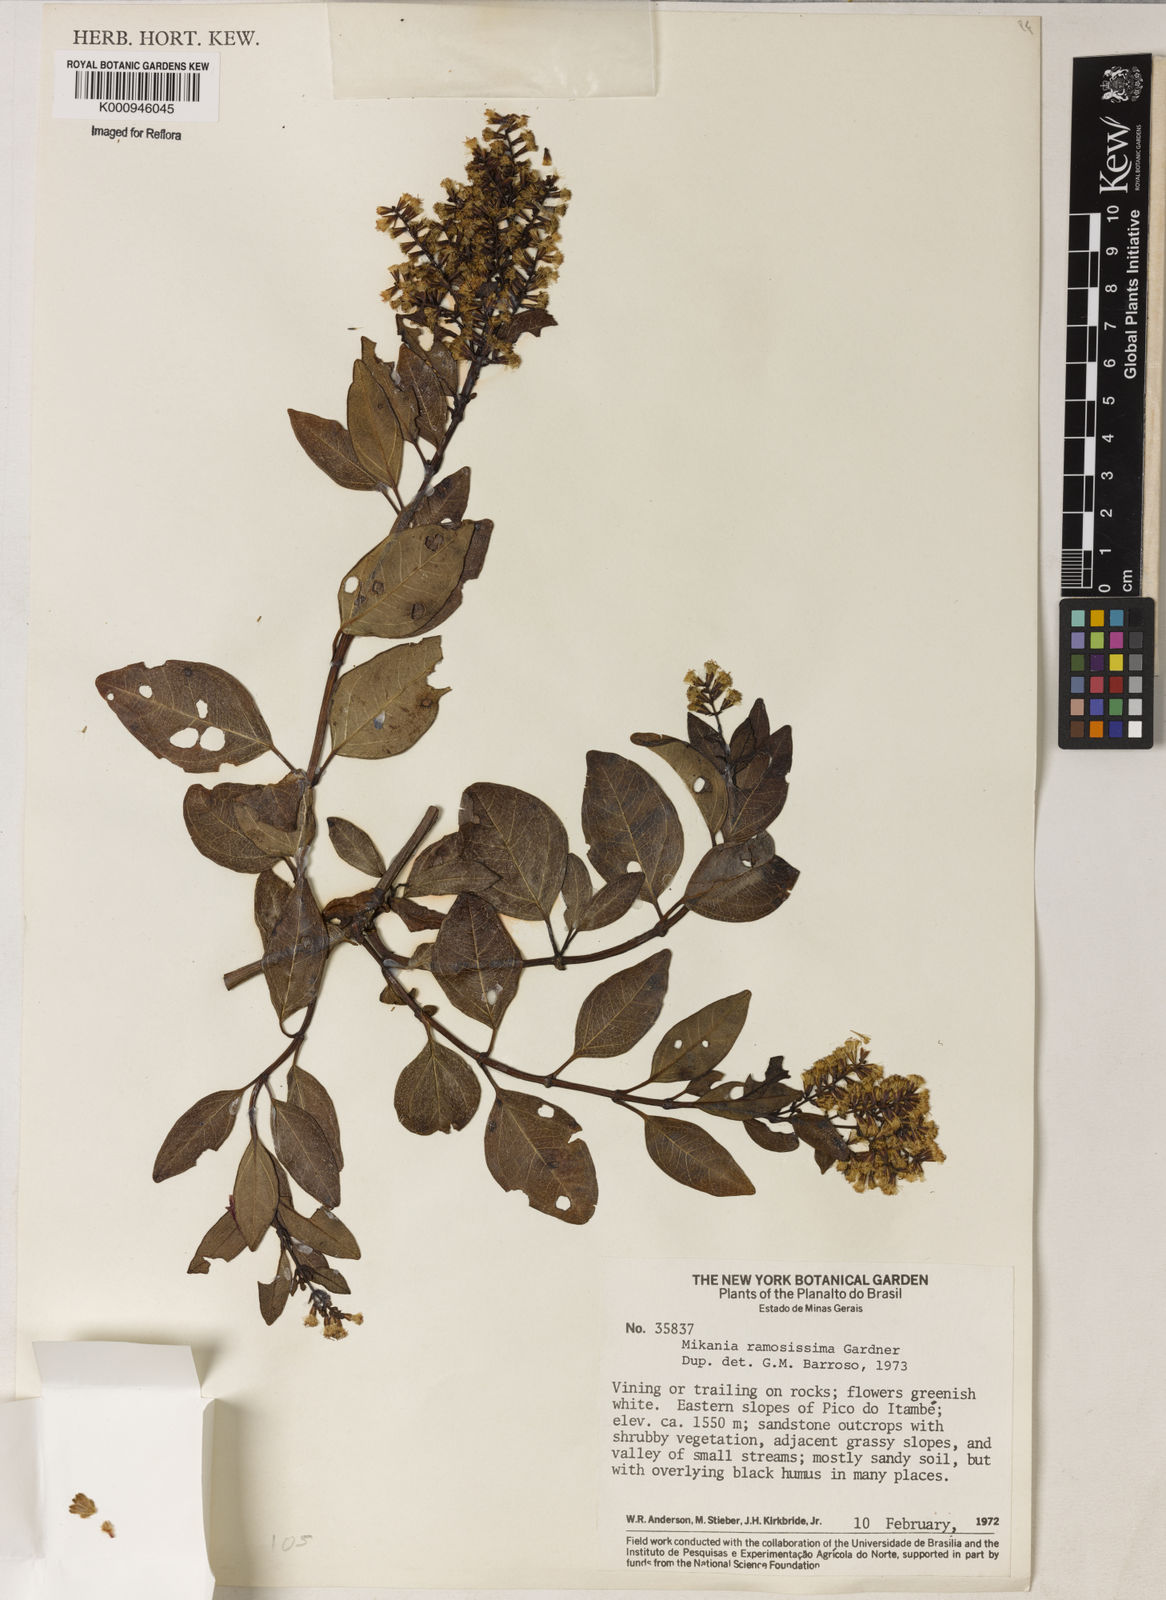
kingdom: Plantae
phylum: Tracheophyta
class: Magnoliopsida
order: Asterales
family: Asteraceae
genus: Mikania
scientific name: Mikania ramosissima
